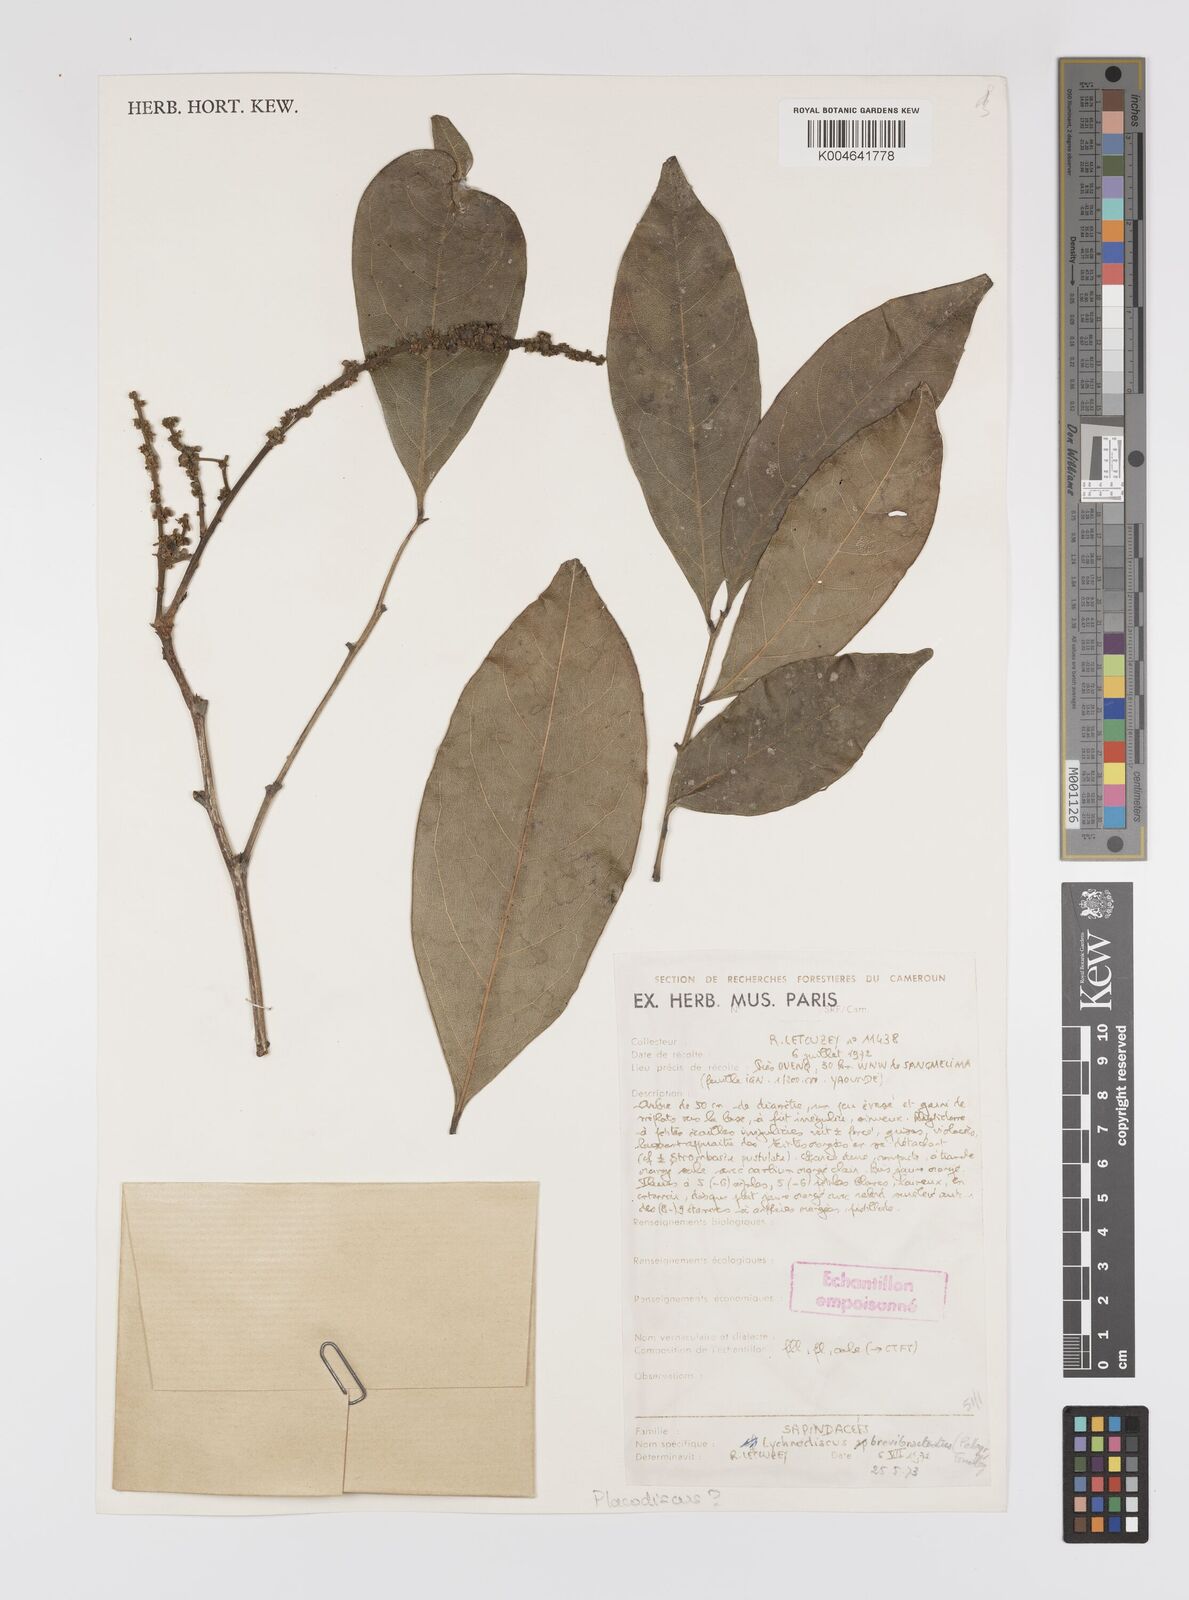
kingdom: Plantae
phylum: Tracheophyta
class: Magnoliopsida
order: Sapindales
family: Sapindaceae
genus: Lychnodiscus
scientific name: Lychnodiscus brevibracteatus
